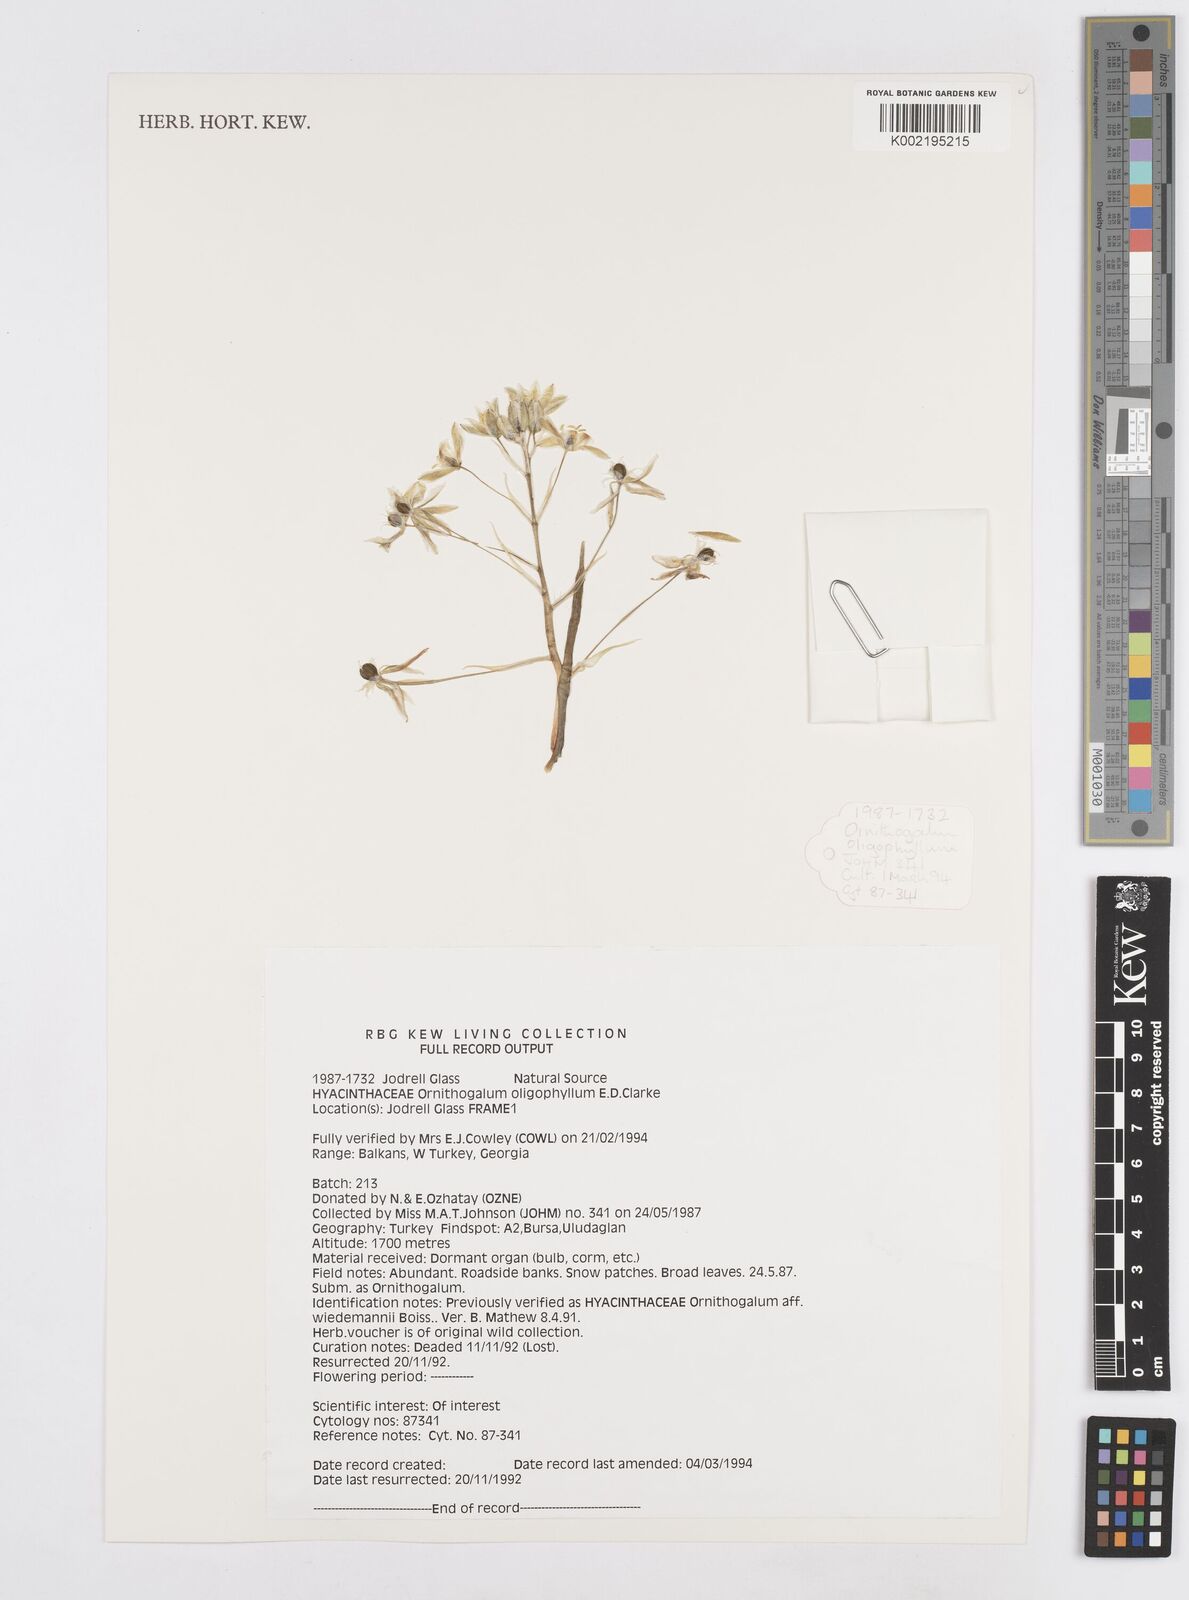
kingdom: Plantae
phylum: Tracheophyta
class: Liliopsida
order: Asparagales
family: Asparagaceae
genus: Ornithogalum
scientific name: Ornithogalum oligophyllum
